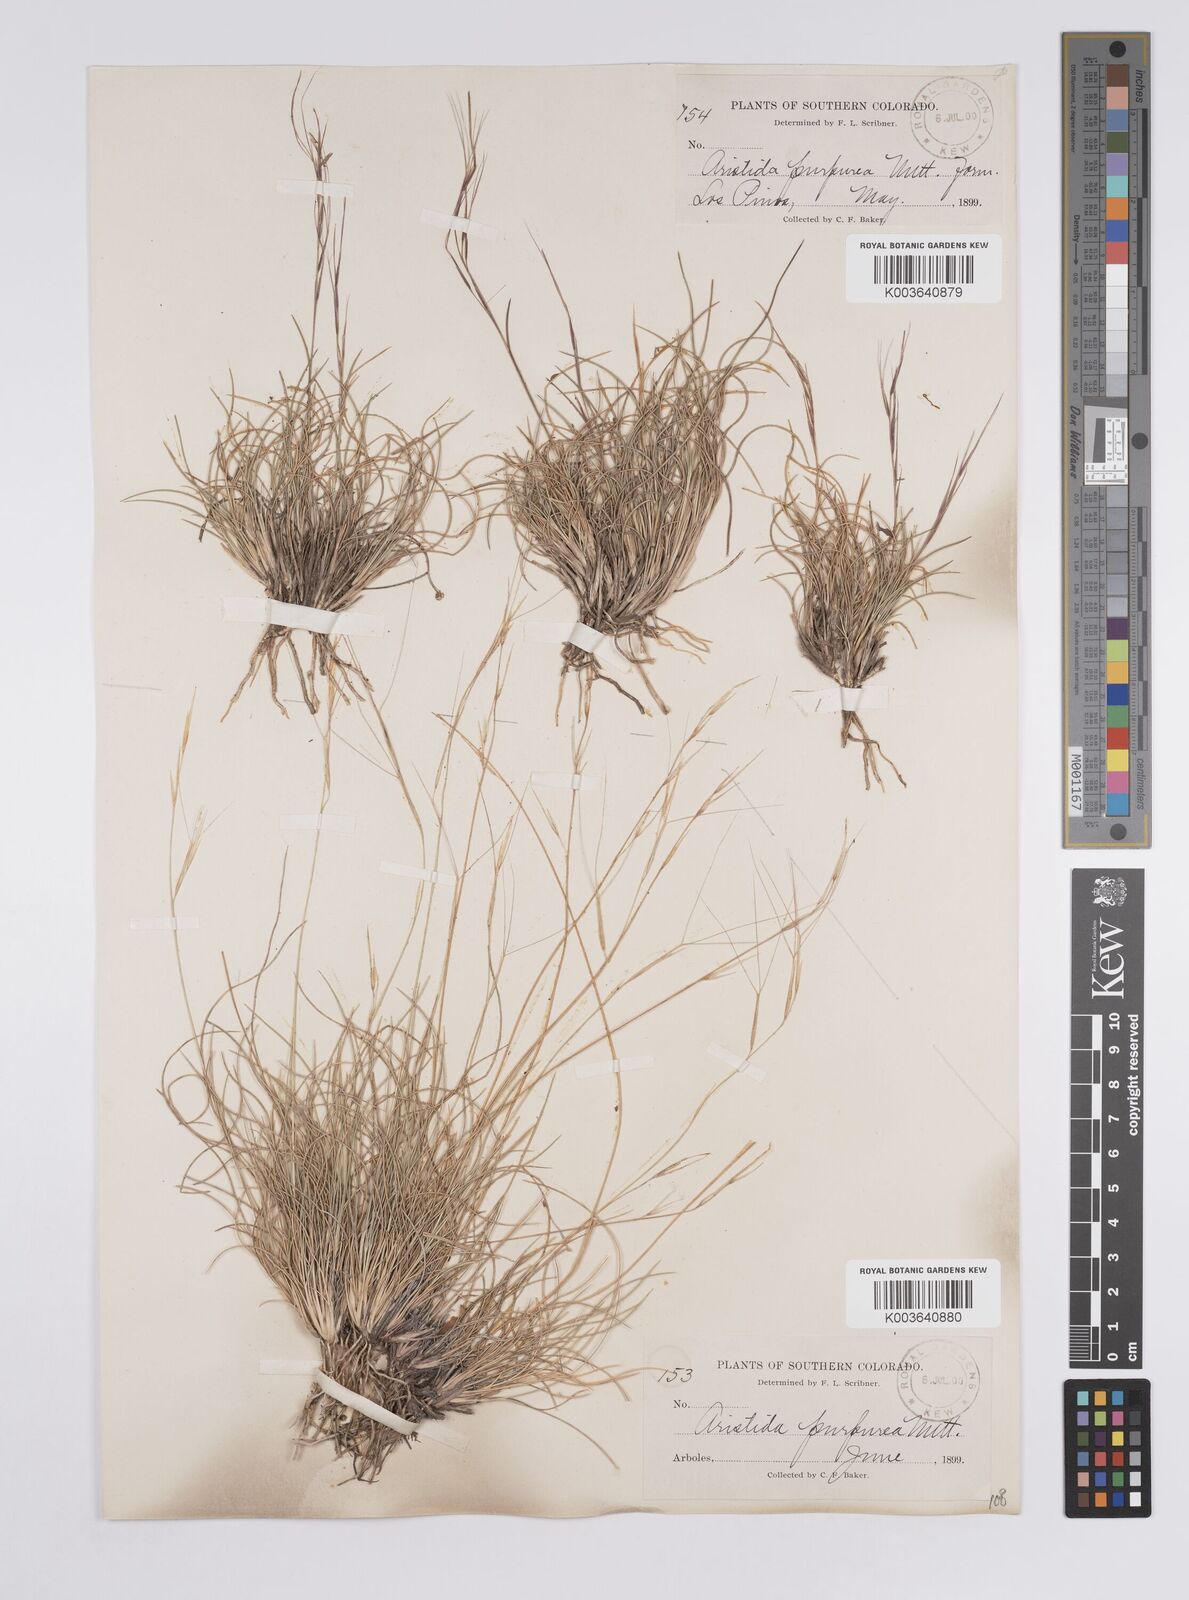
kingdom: Plantae
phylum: Tracheophyta
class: Liliopsida
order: Poales
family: Poaceae
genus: Aristida
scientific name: Aristida purpurea
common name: Purple threeawn
